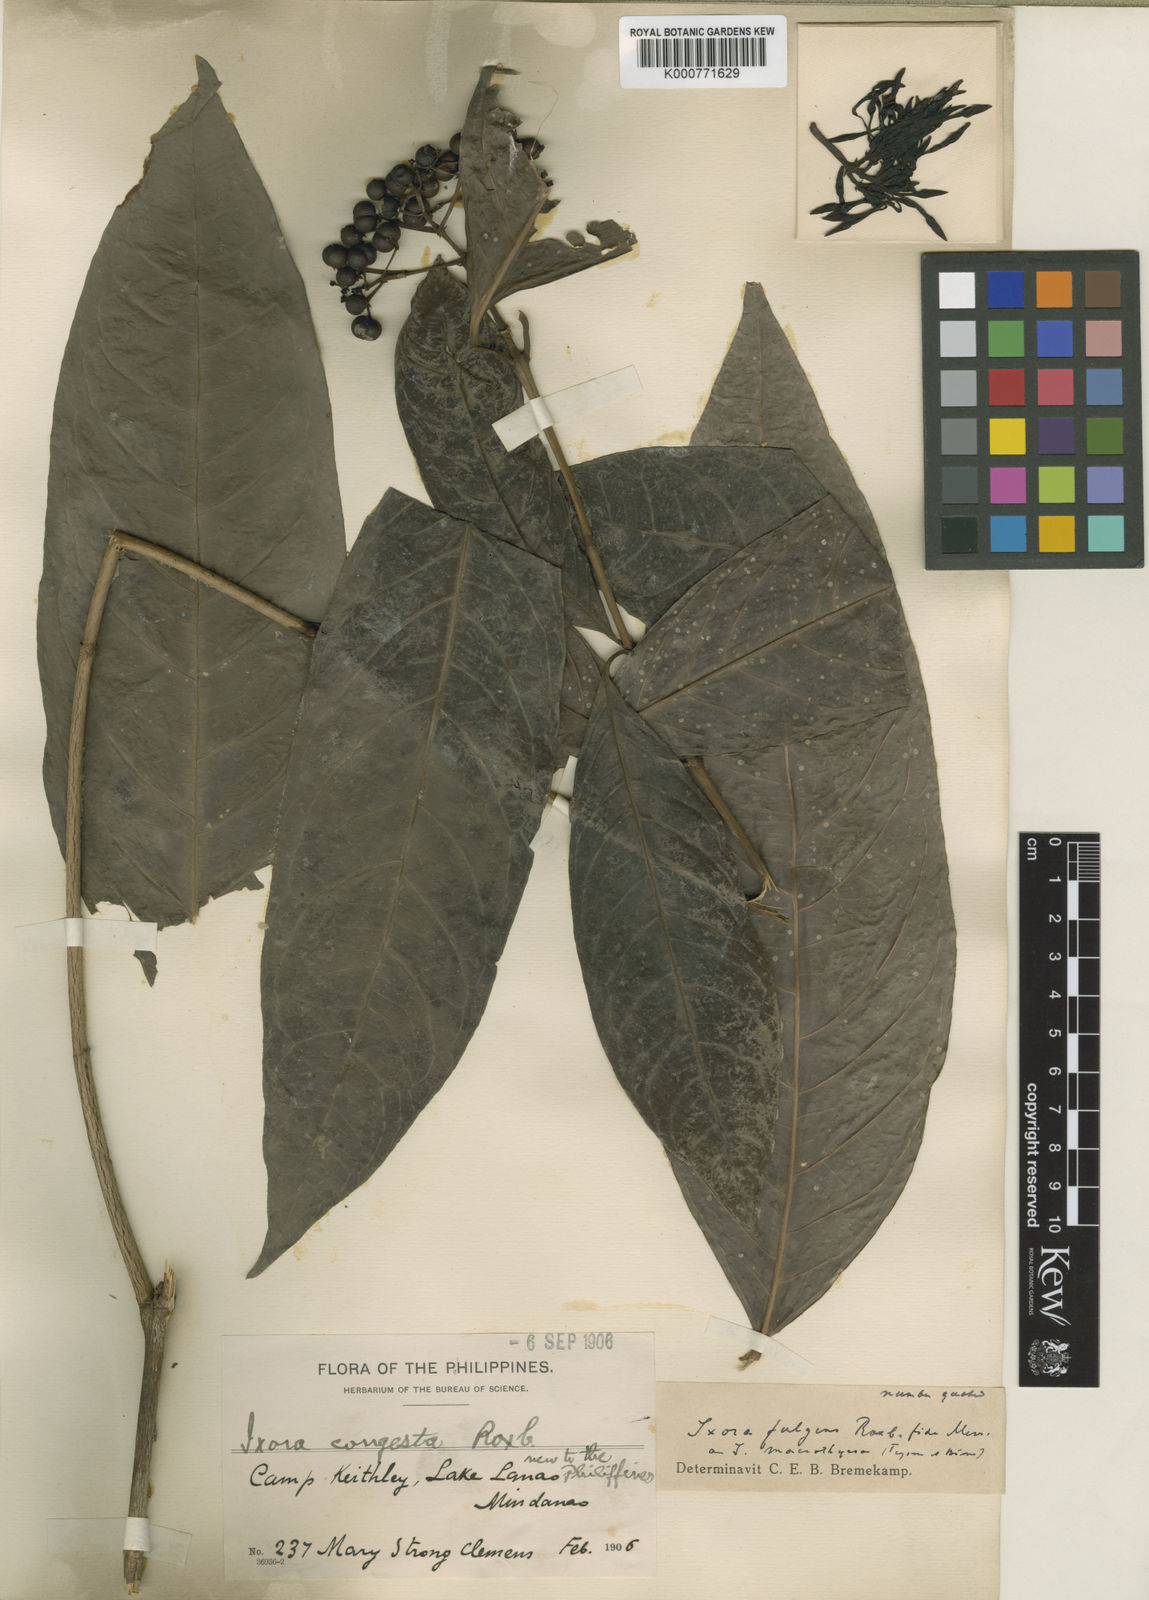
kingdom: Plantae
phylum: Tracheophyta
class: Magnoliopsida
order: Gentianales
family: Rubiaceae
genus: Ixora
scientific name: Ixora longifolia
